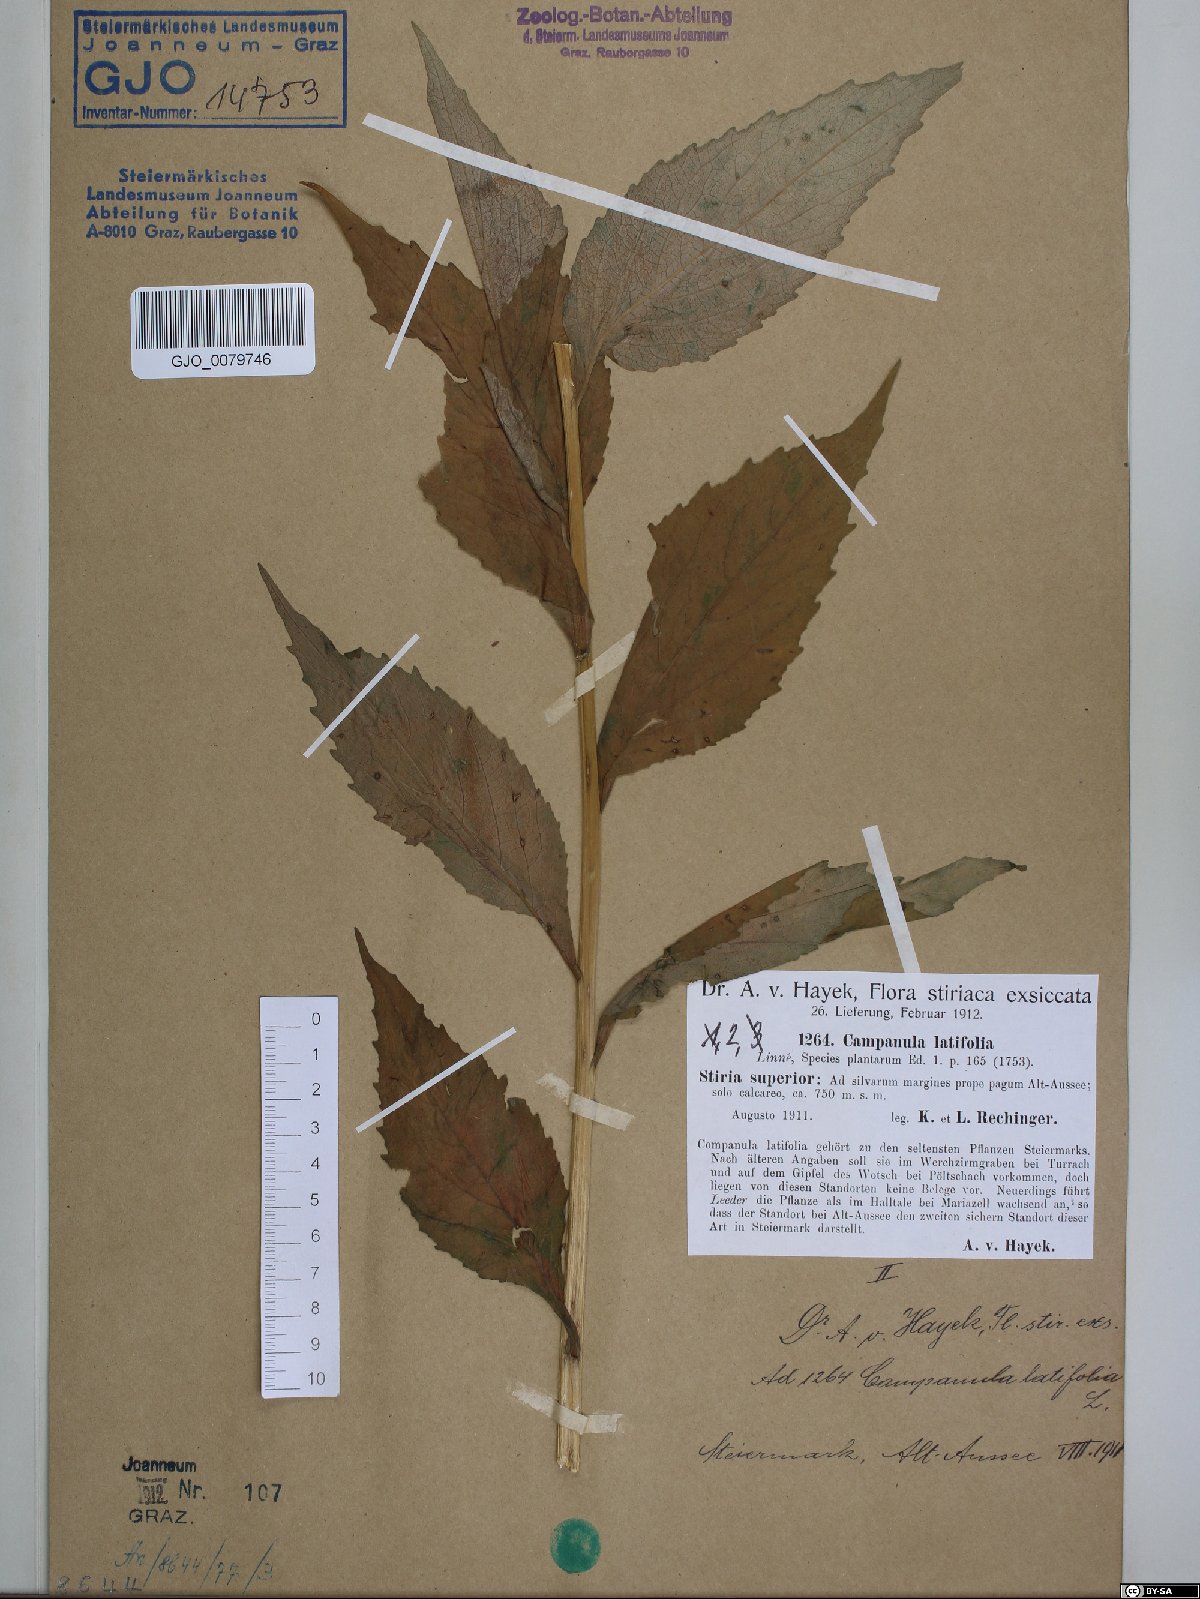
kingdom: Plantae
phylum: Tracheophyta
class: Magnoliopsida
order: Asterales
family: Campanulaceae
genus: Campanula
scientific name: Campanula latifolia
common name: Giant bellflower
